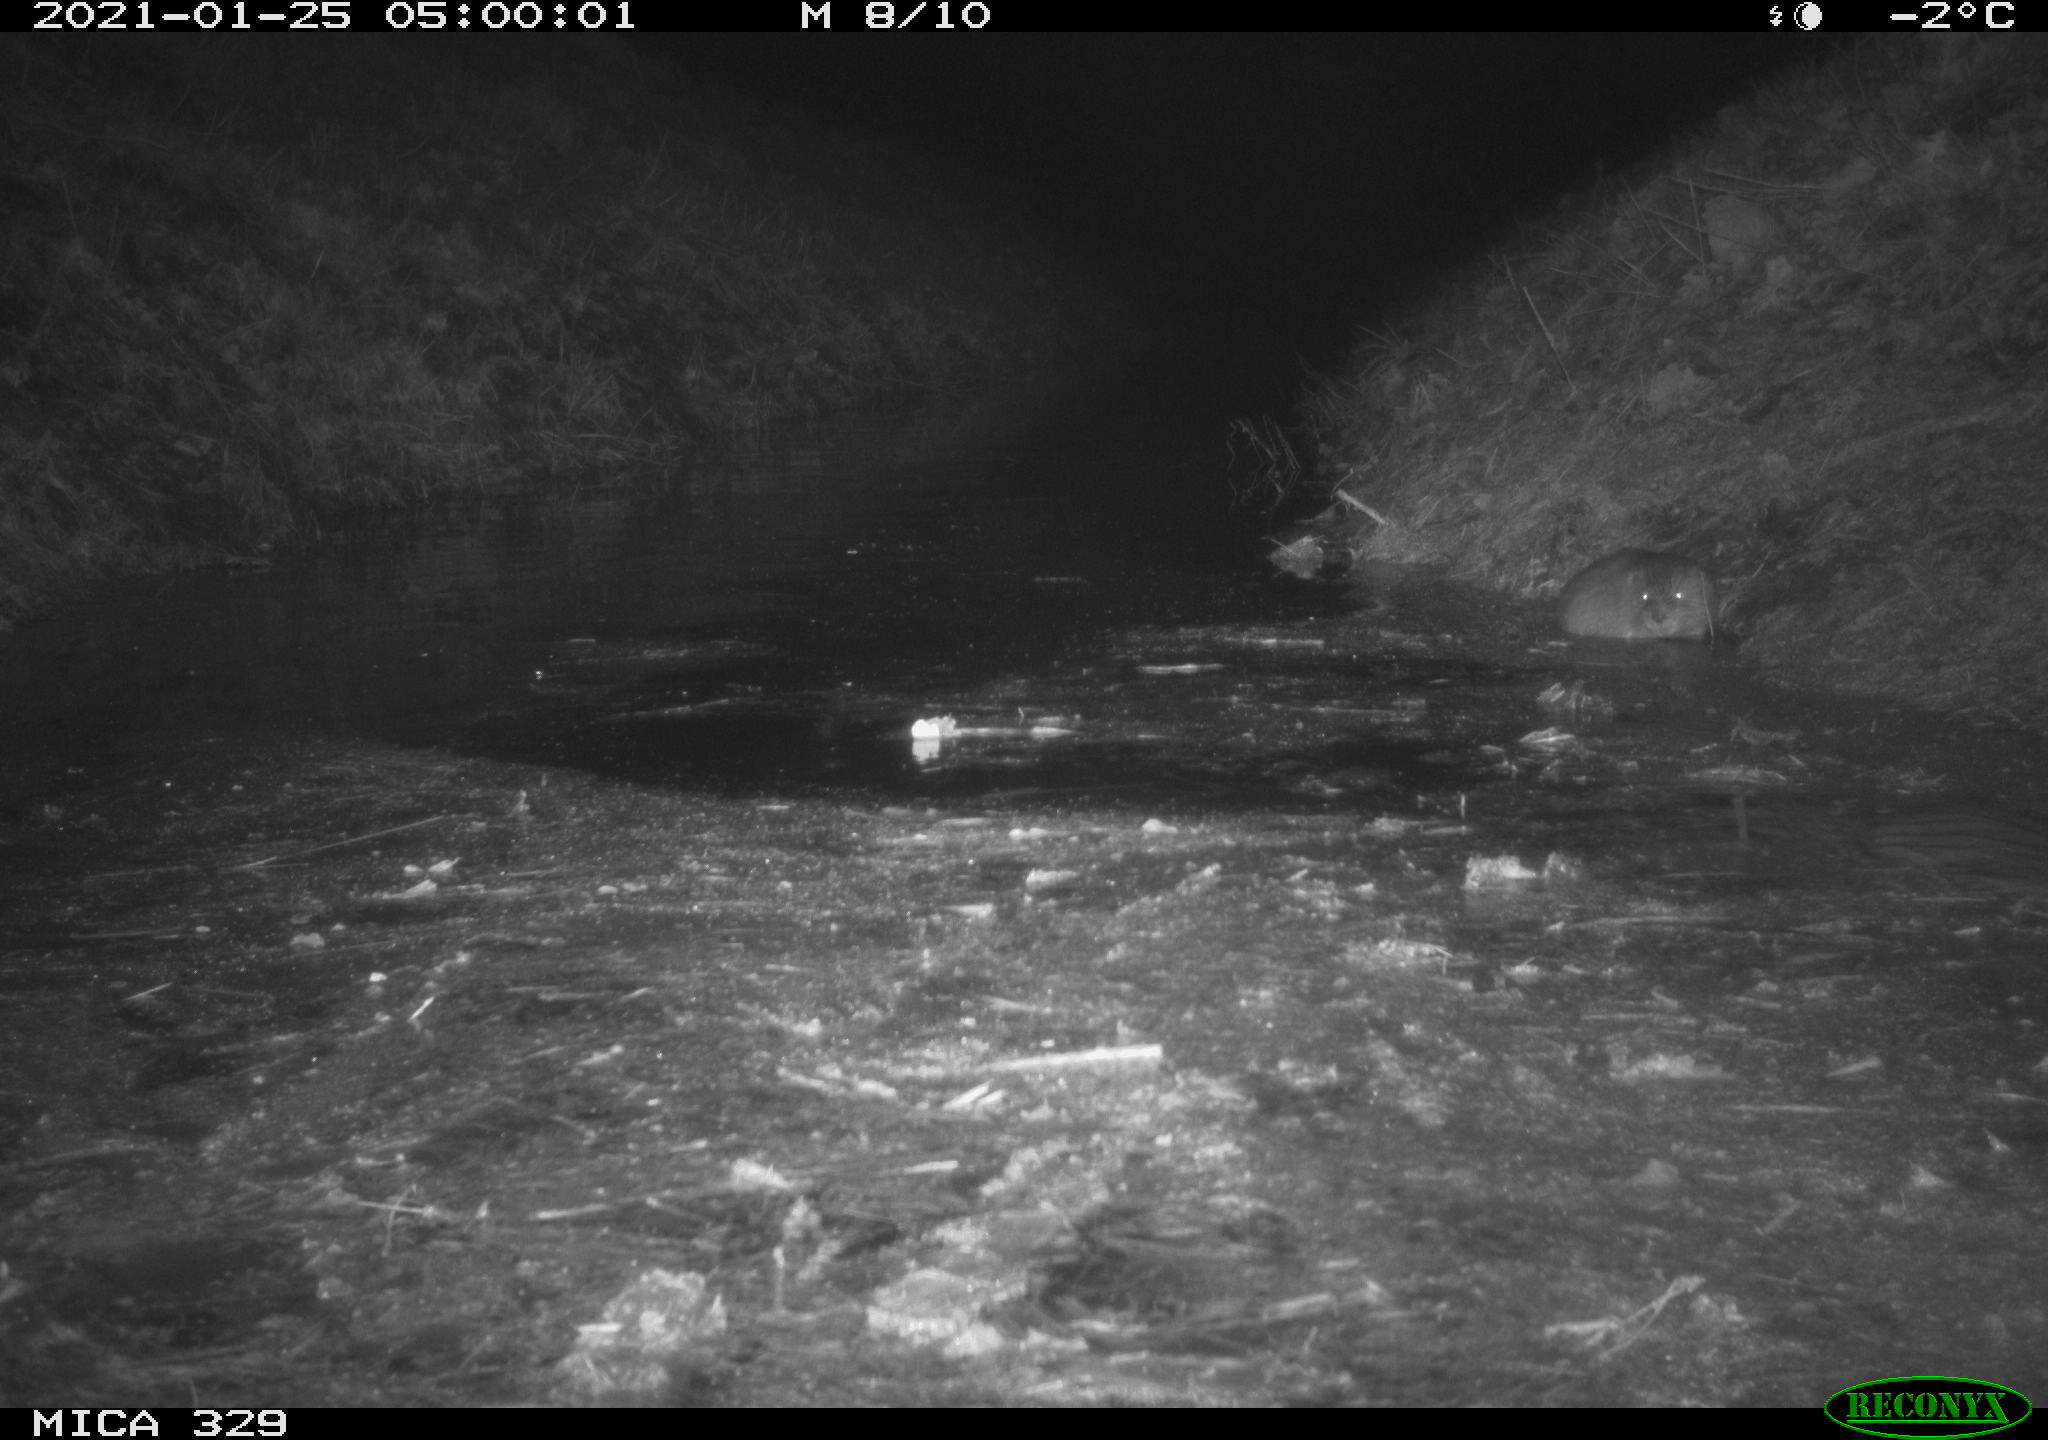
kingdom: Animalia
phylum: Chordata
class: Mammalia
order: Rodentia
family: Cricetidae
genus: Ondatra
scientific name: Ondatra zibethicus
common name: Muskrat
